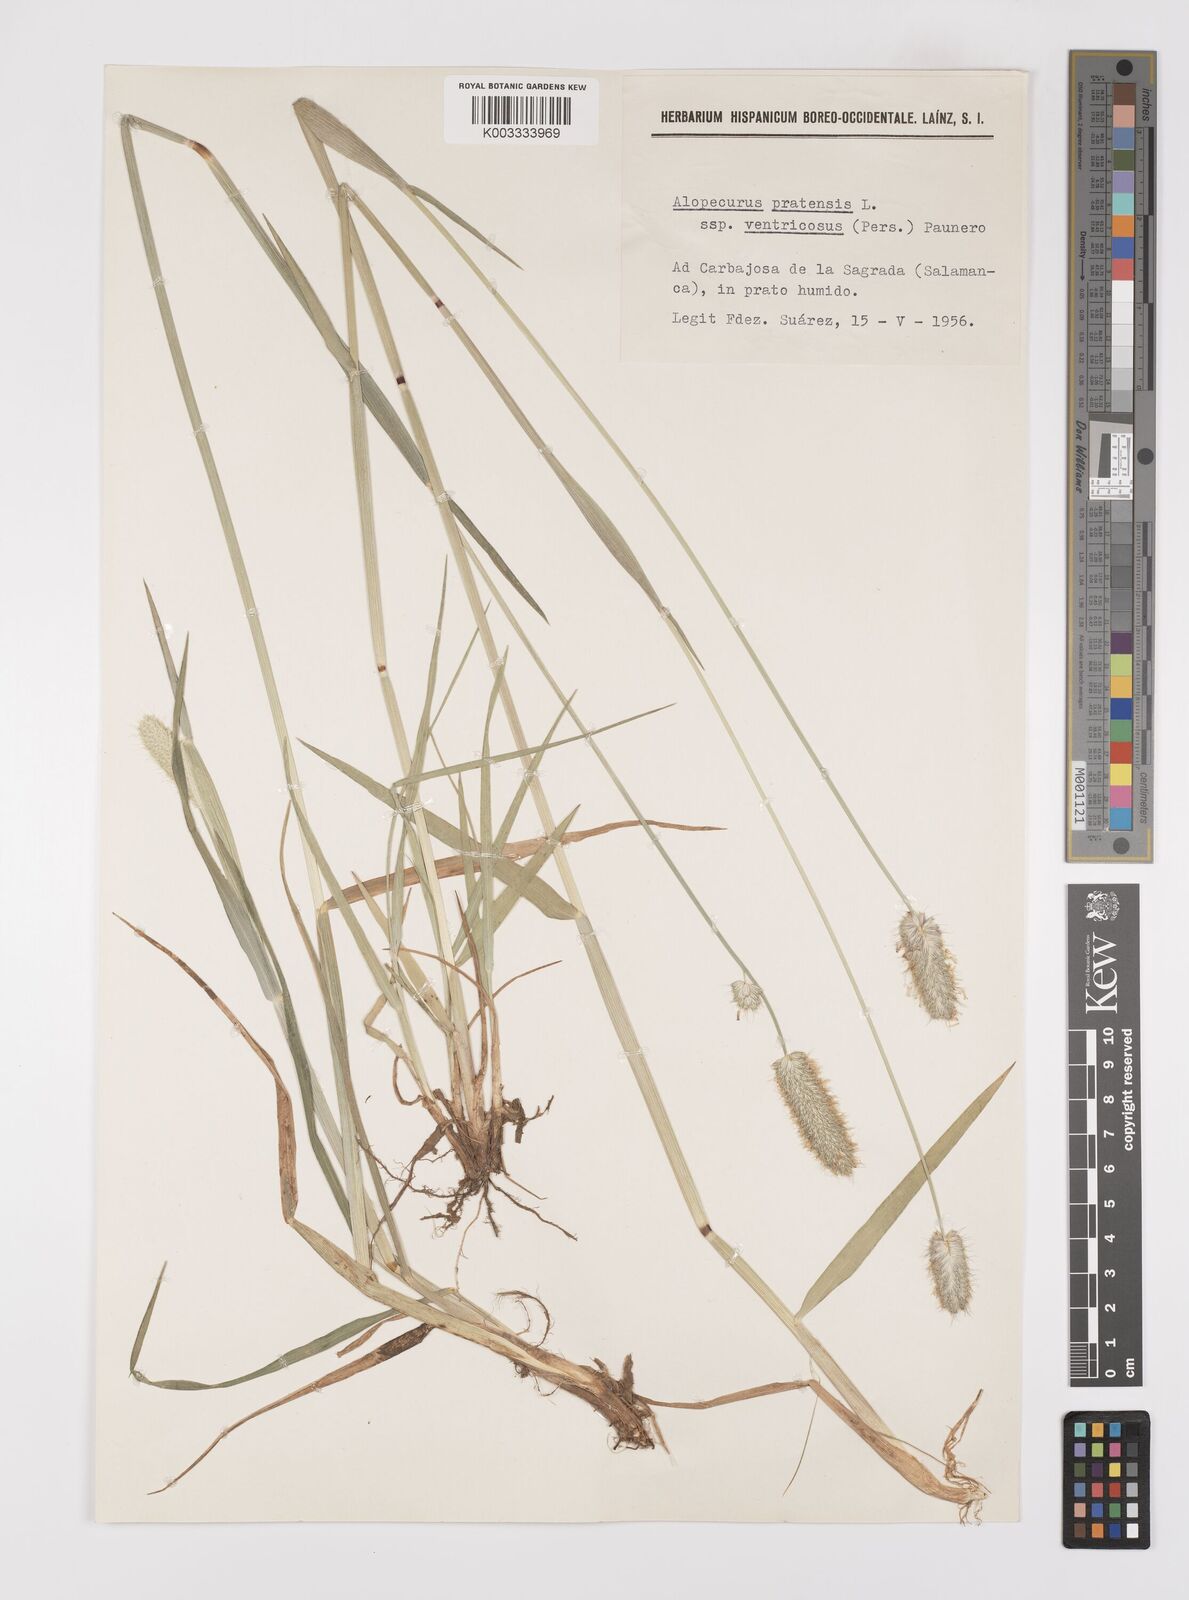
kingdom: Plantae
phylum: Tracheophyta
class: Liliopsida
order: Poales
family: Poaceae
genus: Alopecurus
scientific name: Alopecurus arundinaceus
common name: Creeping meadow foxtail
